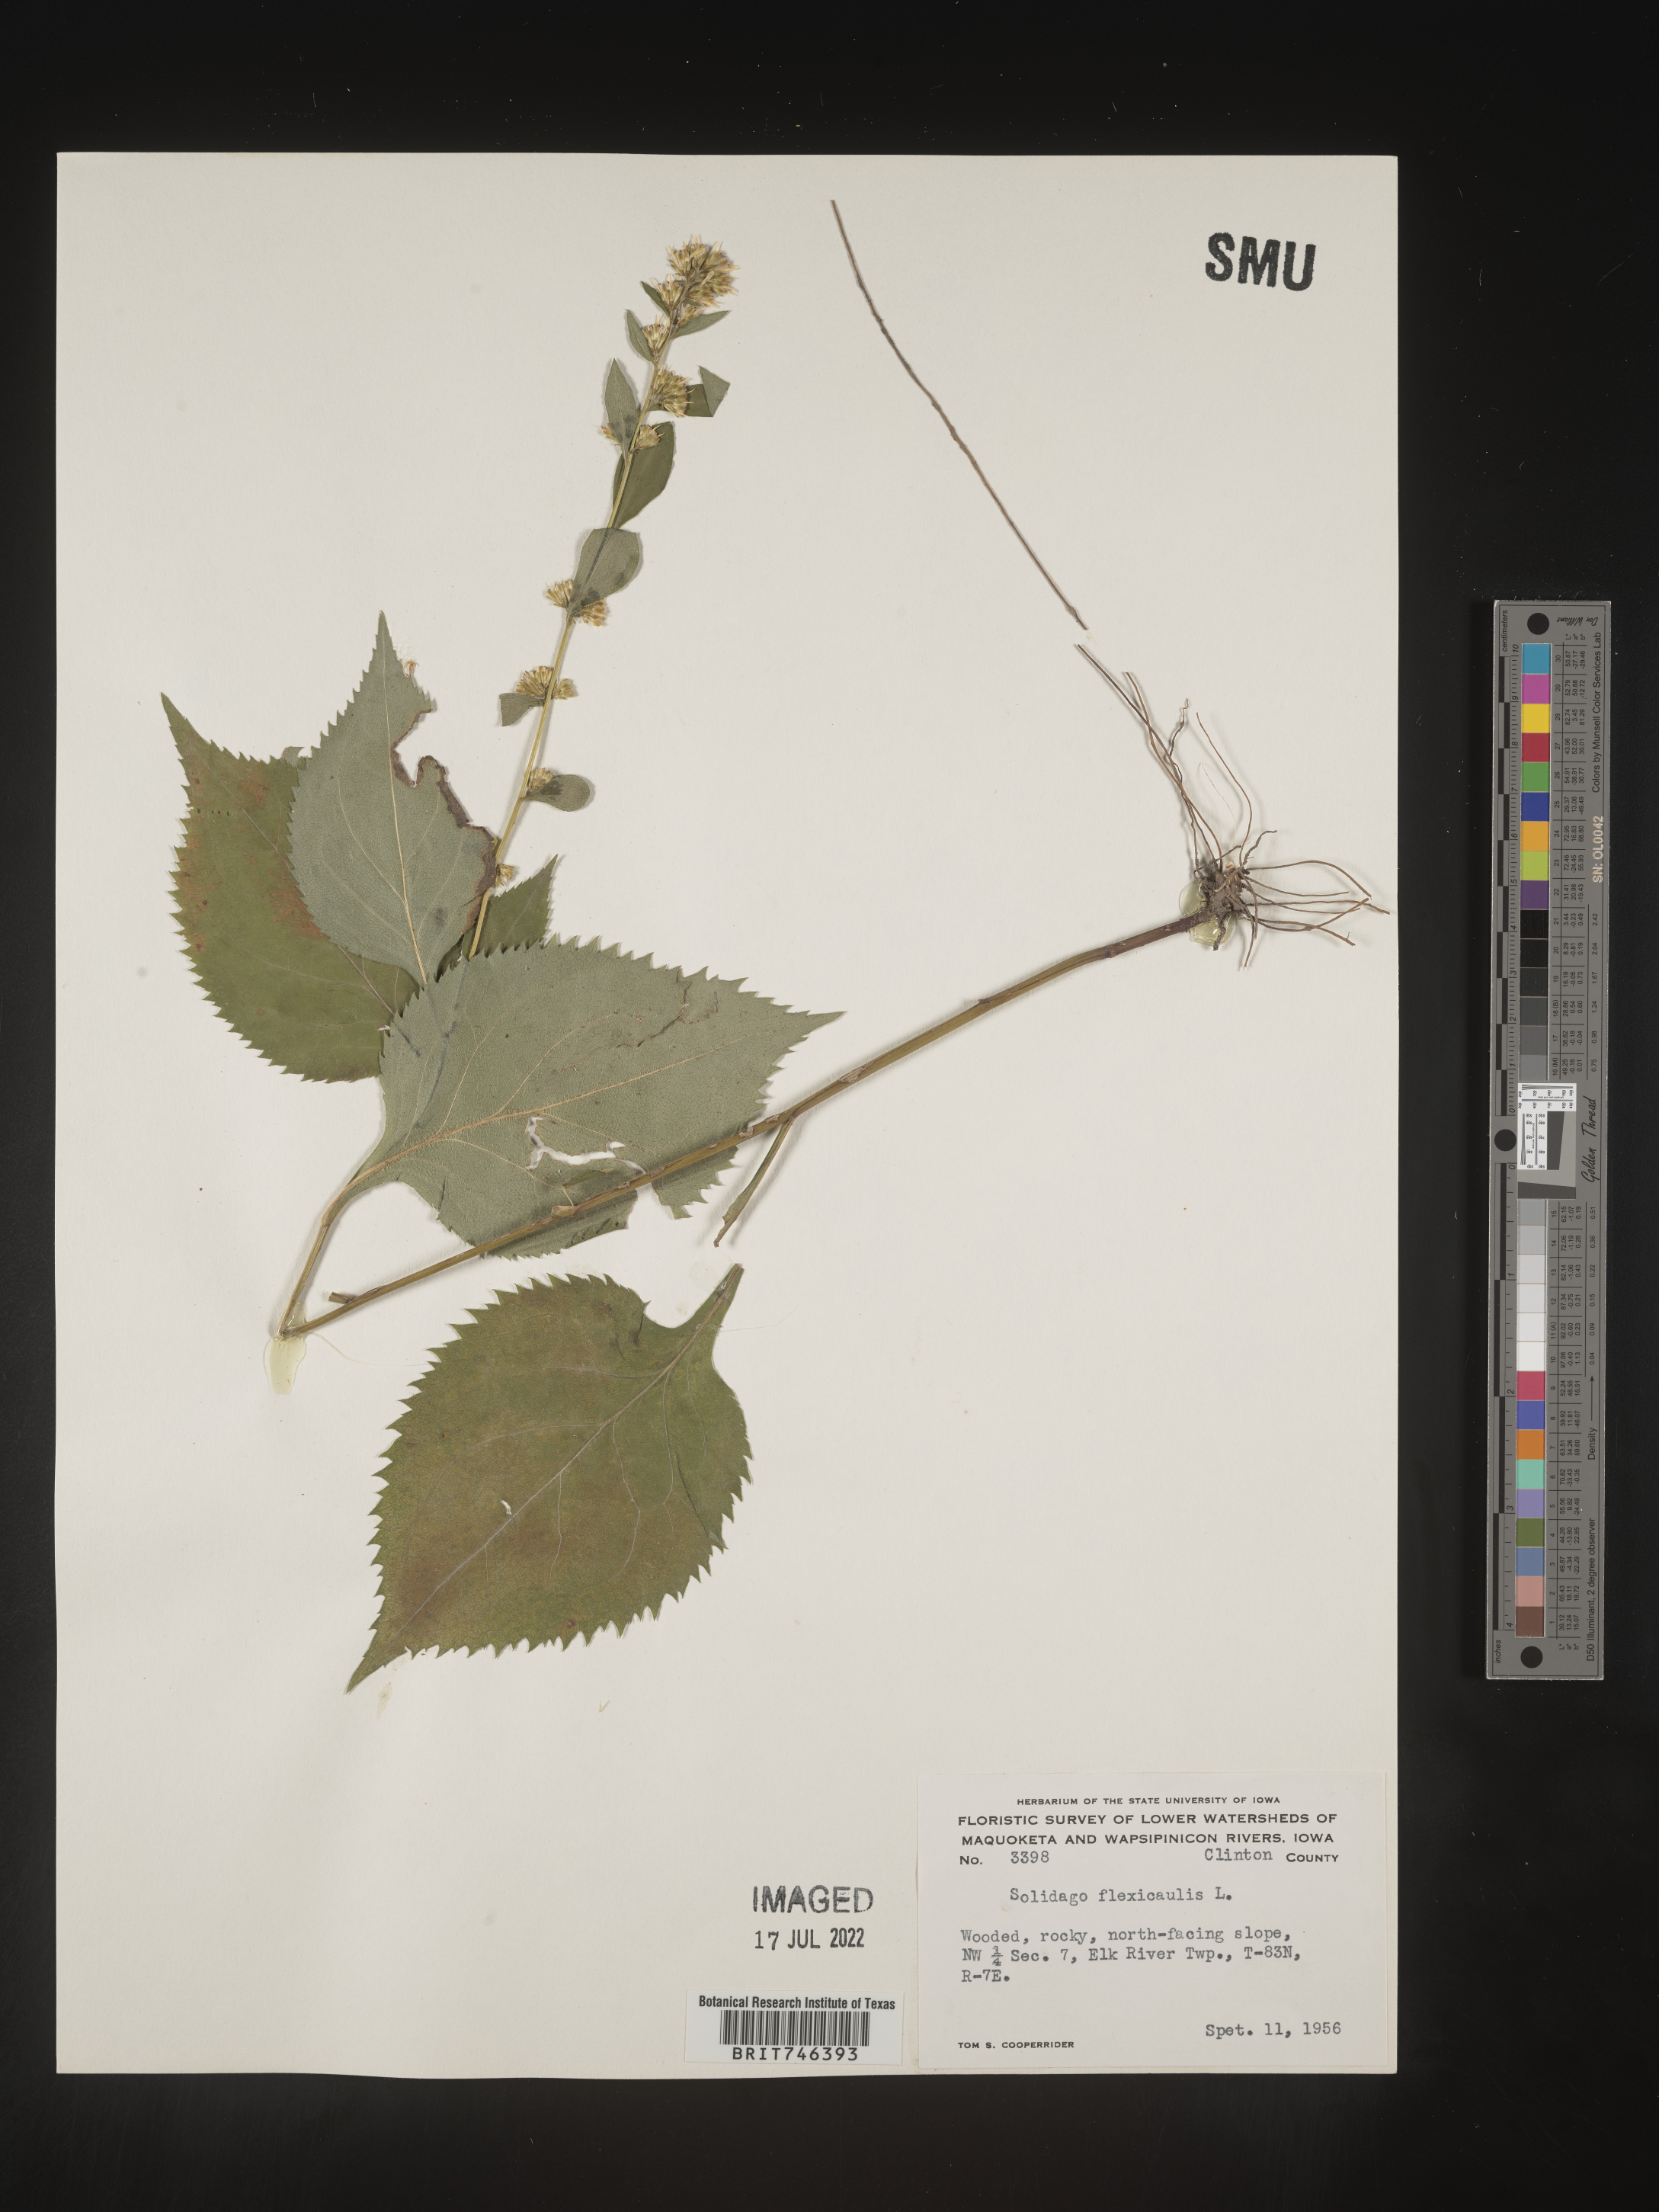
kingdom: Plantae
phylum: Tracheophyta
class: Magnoliopsida
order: Asterales
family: Asteraceae
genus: Solidago
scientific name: Solidago flexicaulis
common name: Zig-zag goldenrod
